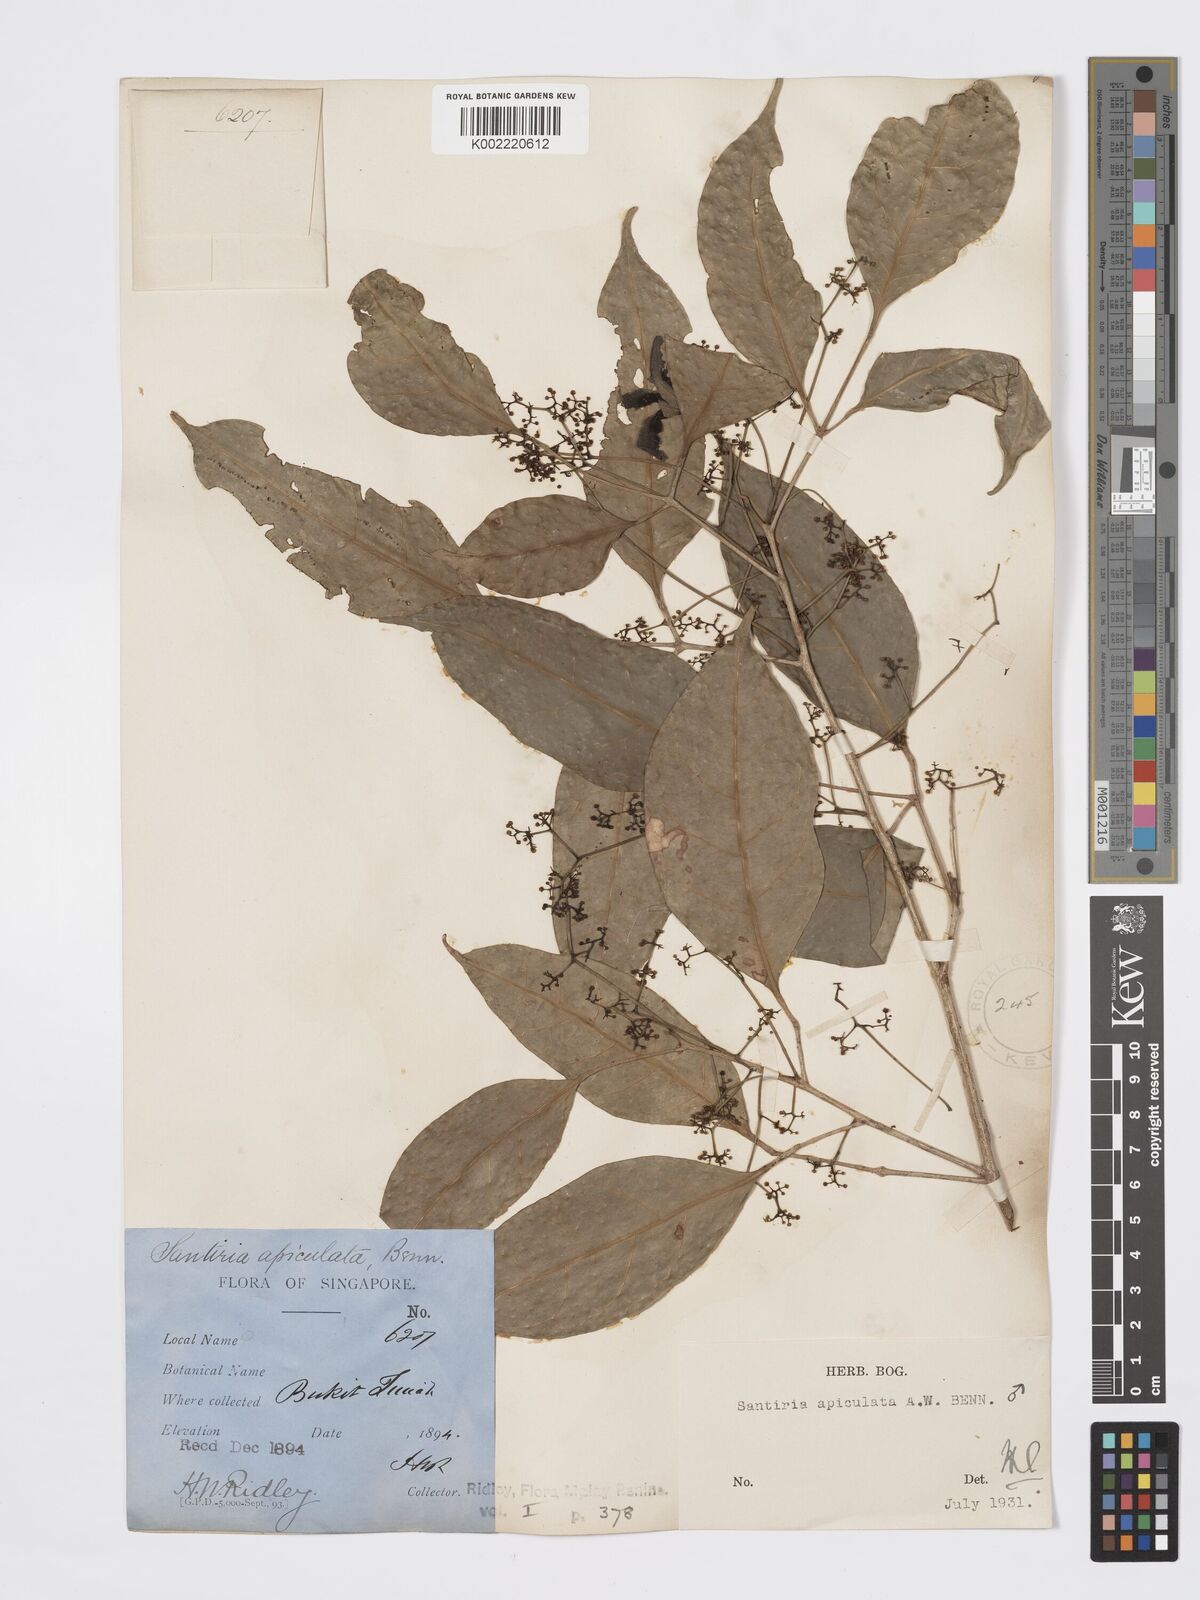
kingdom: Plantae
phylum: Tracheophyta
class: Magnoliopsida
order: Sapindales
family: Burseraceae
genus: Santiria
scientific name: Santiria apiculata
